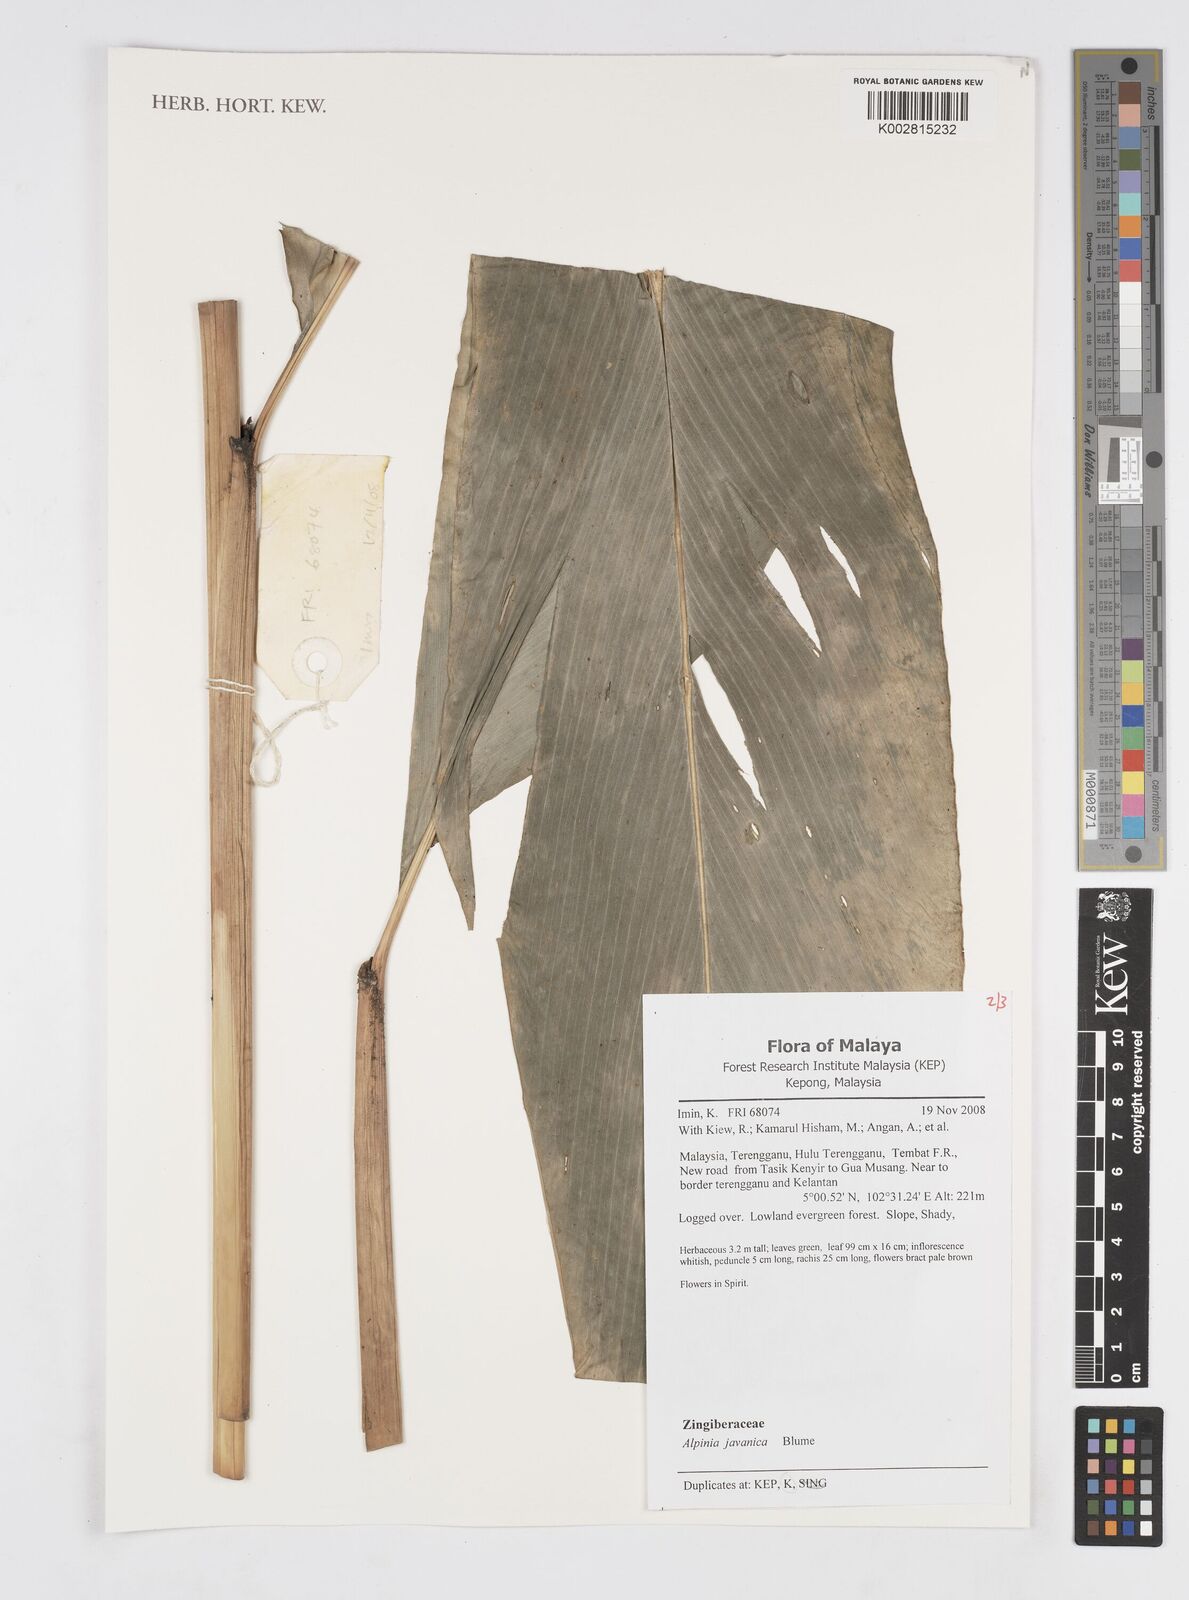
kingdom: Plantae
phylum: Tracheophyta
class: Liliopsida
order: Zingiberales
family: Zingiberaceae
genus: Alpinia
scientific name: Alpinia javanica
